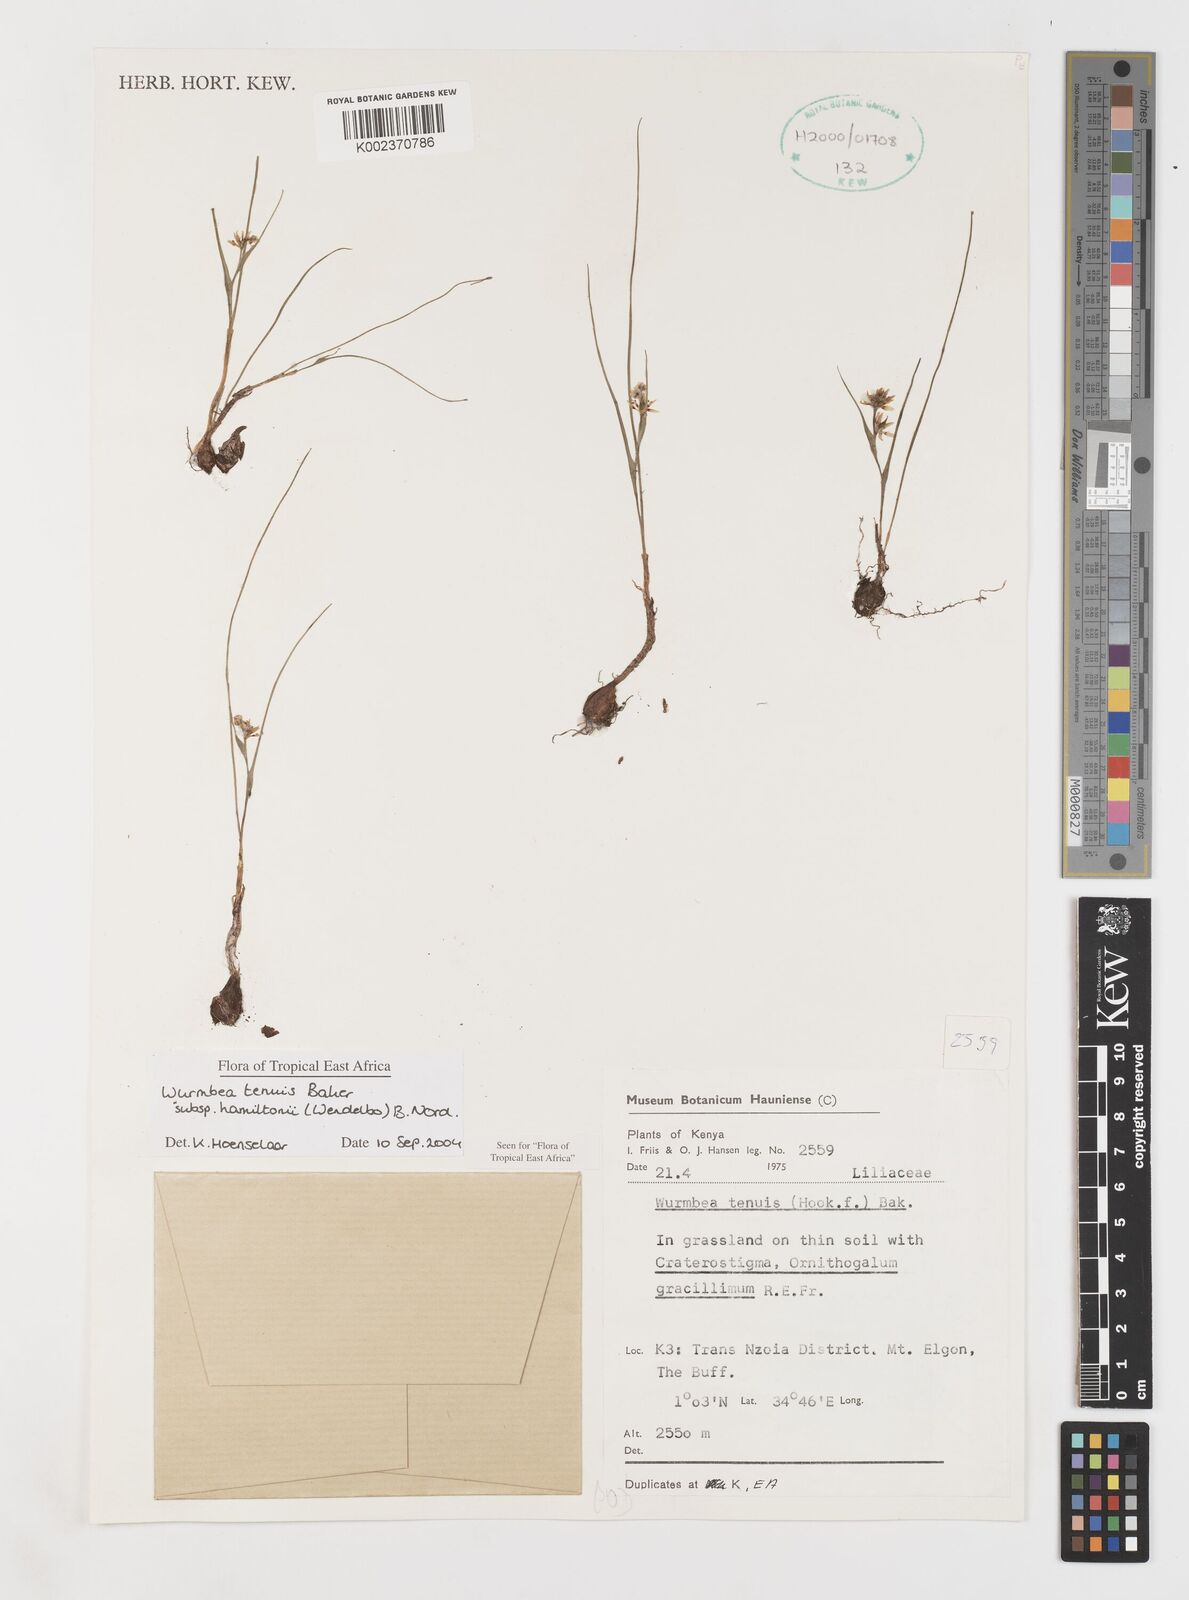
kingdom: Plantae
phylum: Tracheophyta
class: Liliopsida
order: Liliales
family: Colchicaceae
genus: Wurmbea
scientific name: Wurmbea tenuis
